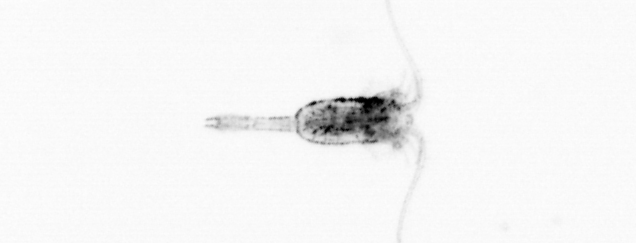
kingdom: Animalia
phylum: Arthropoda
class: Copepoda
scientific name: Copepoda
